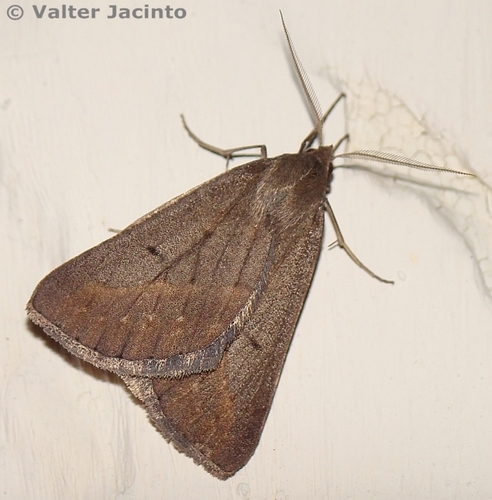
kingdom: Animalia
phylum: Arthropoda
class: Insecta
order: Lepidoptera
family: Geometridae
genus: Chemerina
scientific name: Chemerina caliginearia
